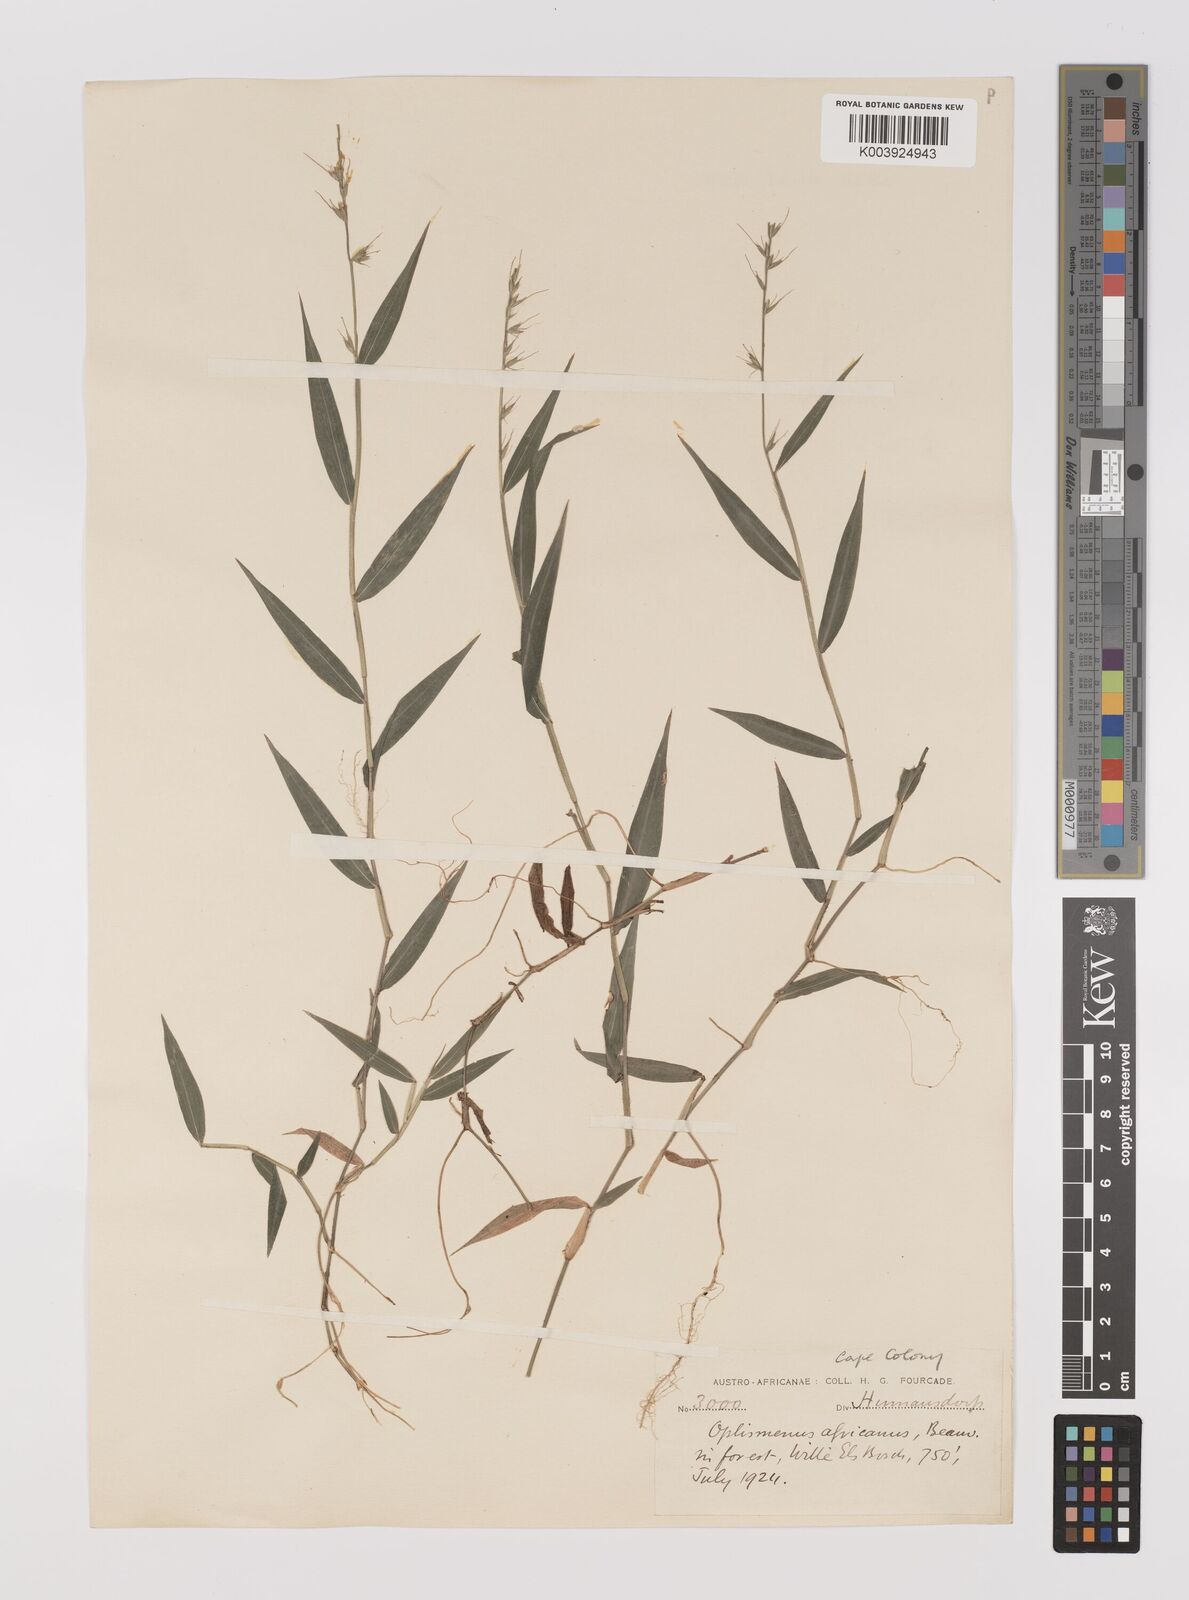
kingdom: Plantae
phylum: Tracheophyta
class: Liliopsida
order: Poales
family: Poaceae
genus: Oplismenus
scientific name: Oplismenus undulatifolius
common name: Wavyleaf basketgrass
